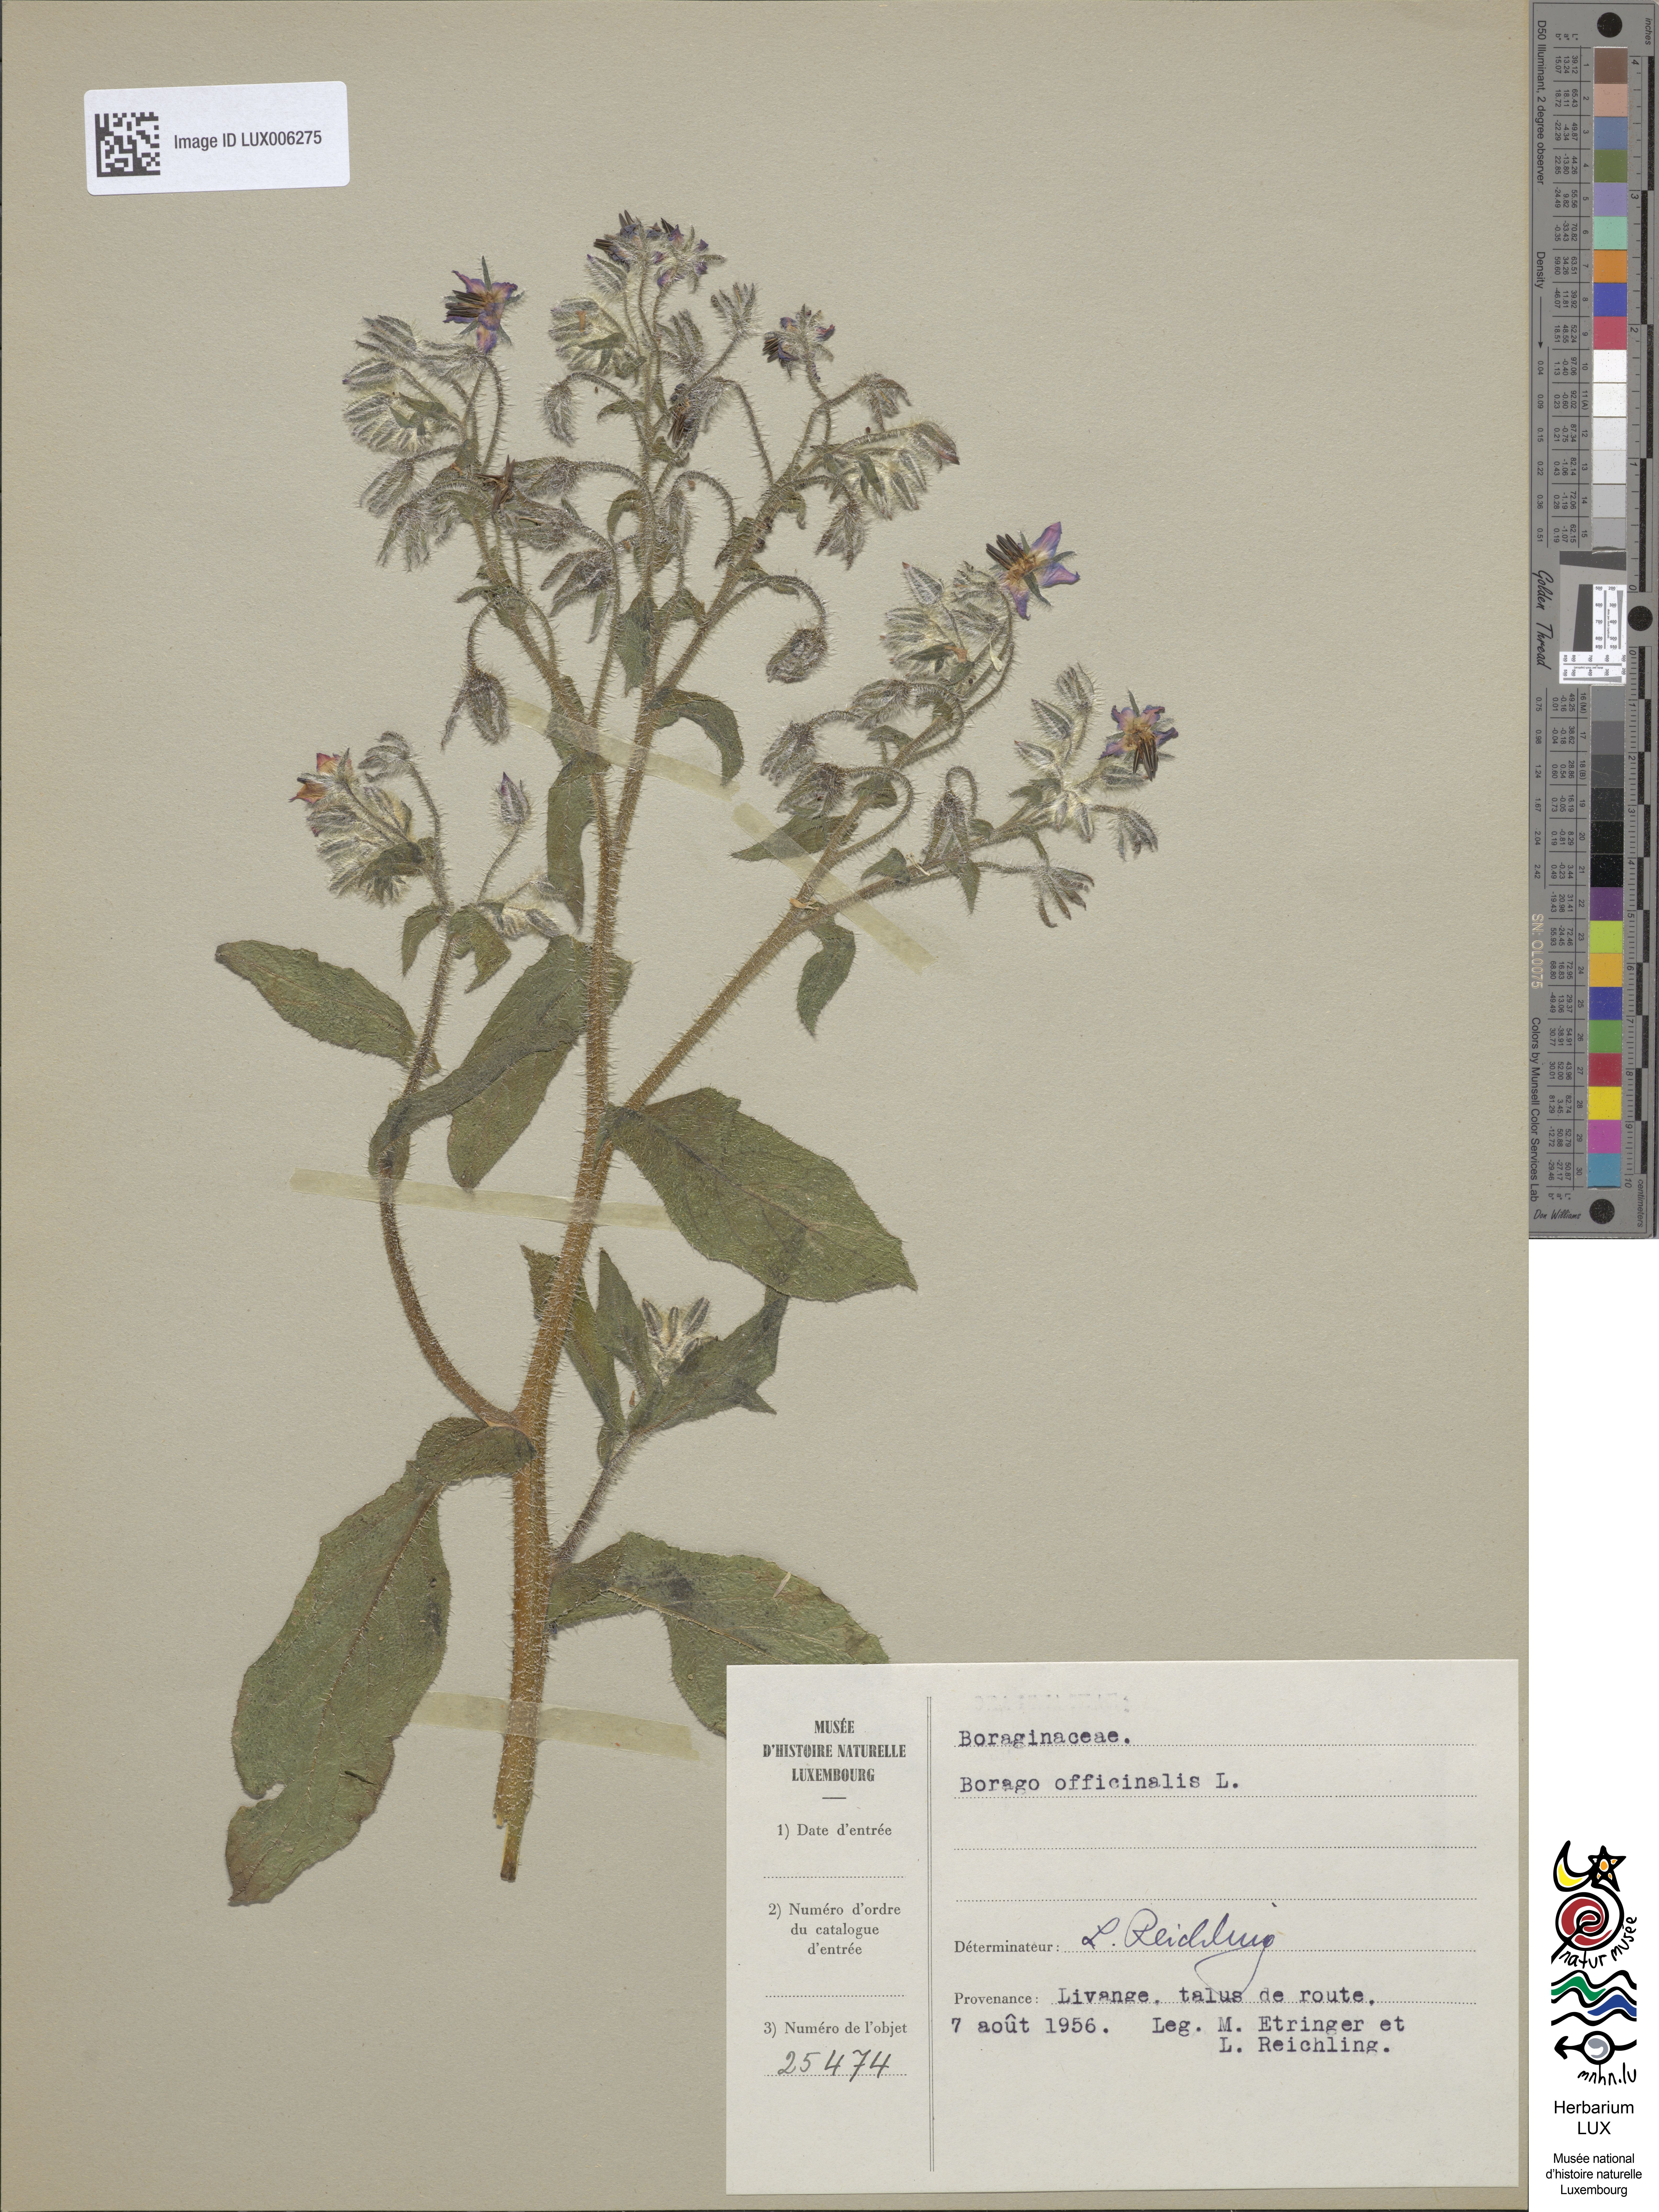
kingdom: Plantae
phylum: Tracheophyta
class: Magnoliopsida
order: Boraginales
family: Boraginaceae
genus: Borago
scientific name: Borago officinalis
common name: Borage
